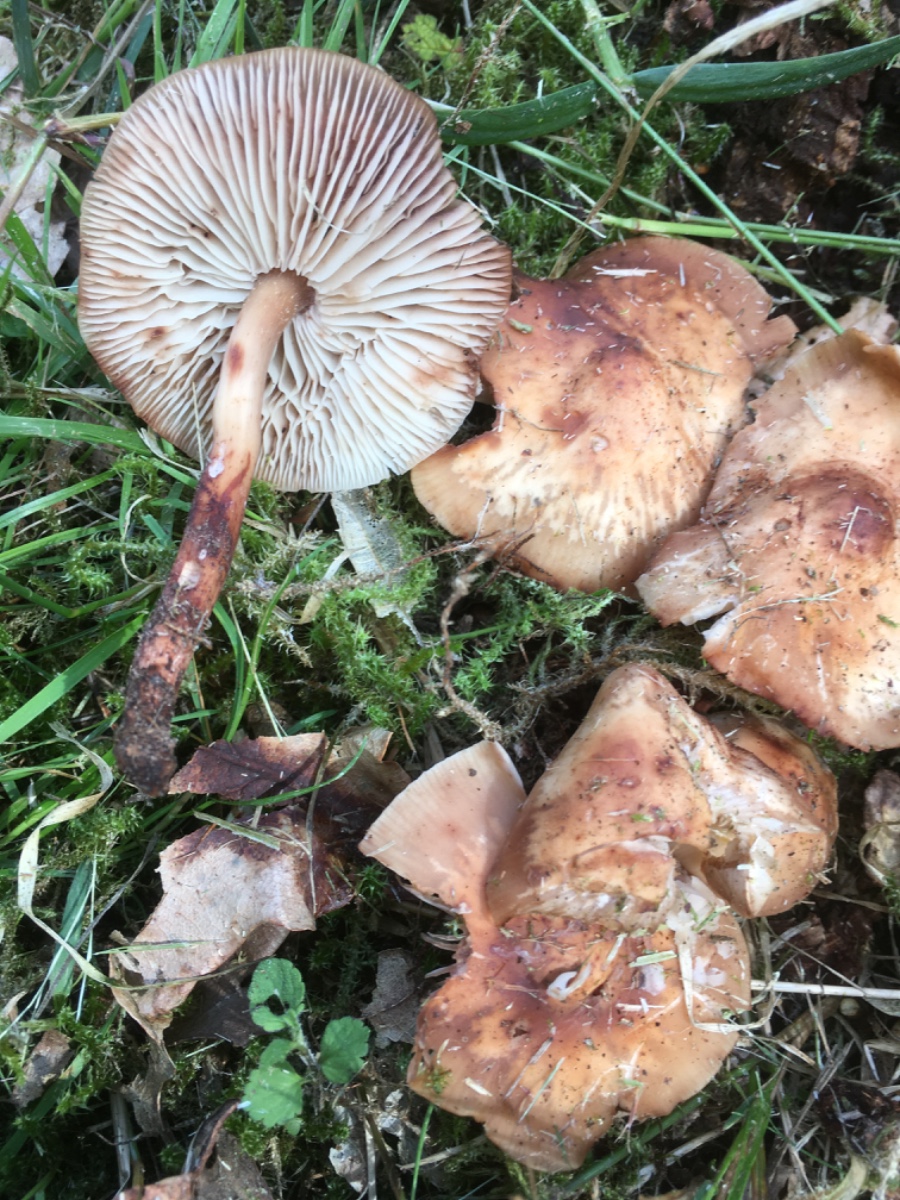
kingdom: Fungi
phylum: Basidiomycota
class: Agaricomycetes
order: Agaricales
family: Omphalotaceae
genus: Gymnopus
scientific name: Gymnopus fusipes
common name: tenstokket fladhat
